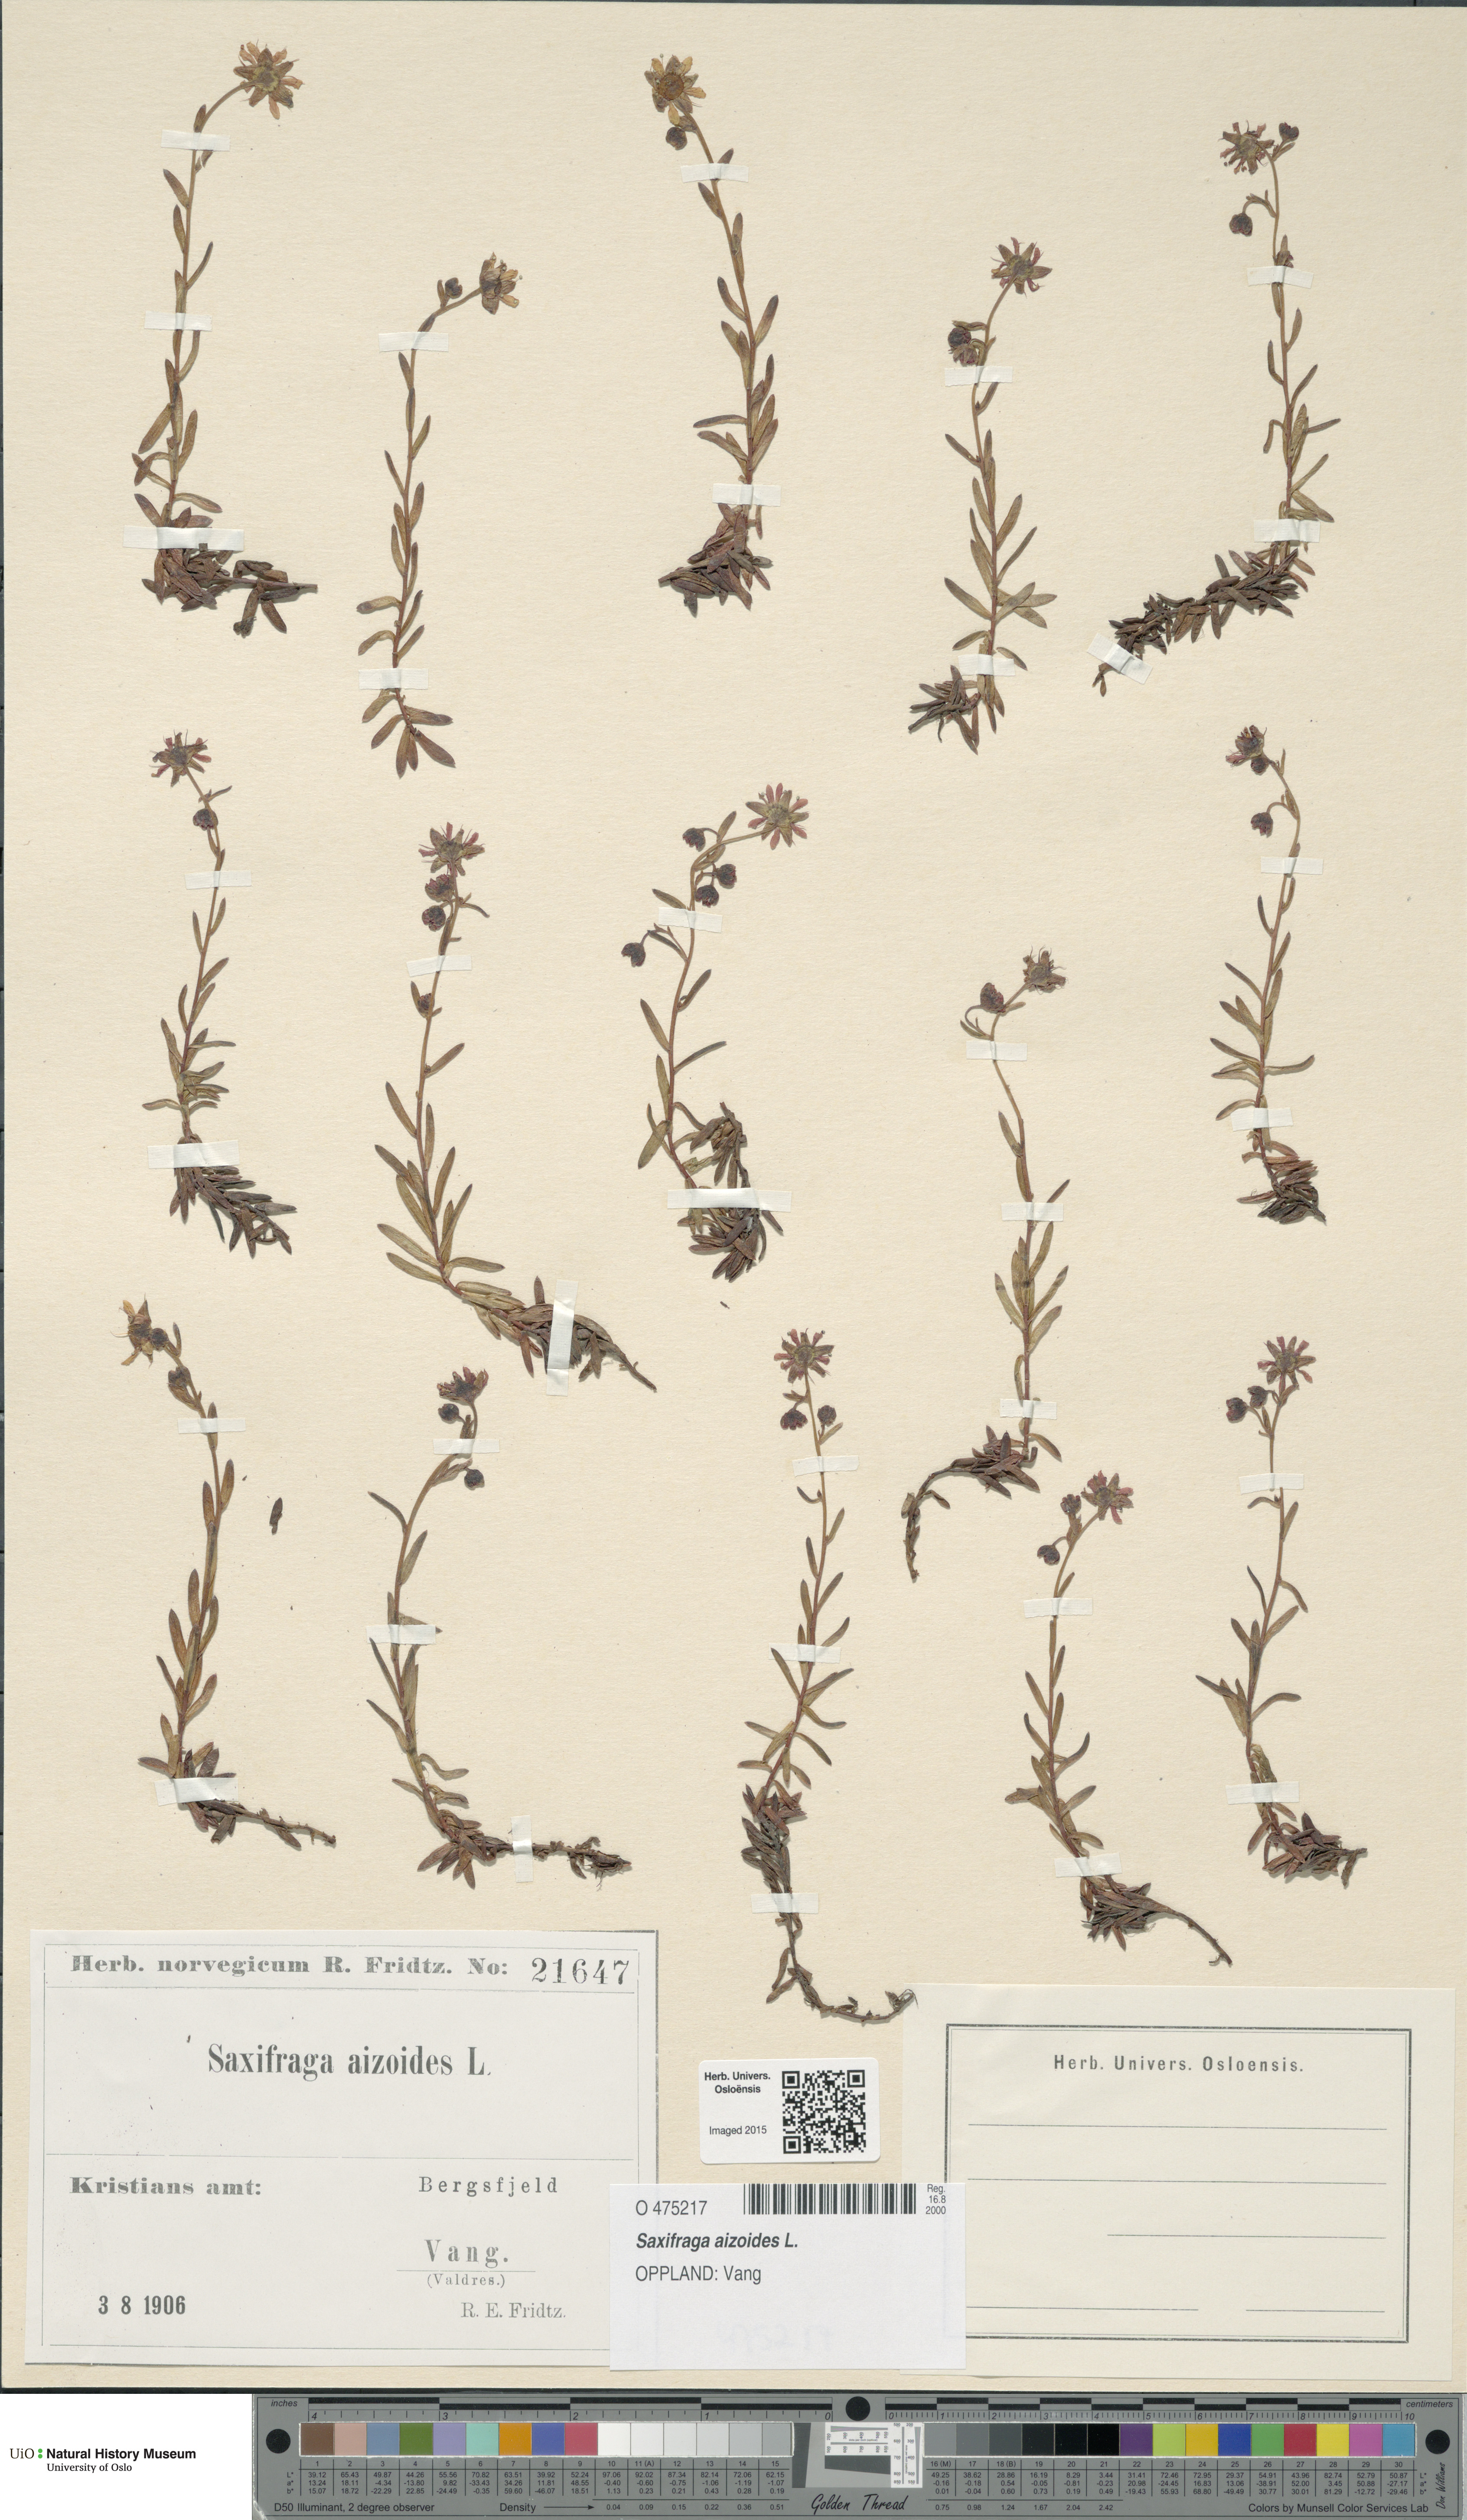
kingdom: Plantae
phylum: Tracheophyta
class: Magnoliopsida
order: Saxifragales
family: Saxifragaceae
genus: Saxifraga
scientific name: Saxifraga aizoides
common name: Yellow mountain saxifrage
